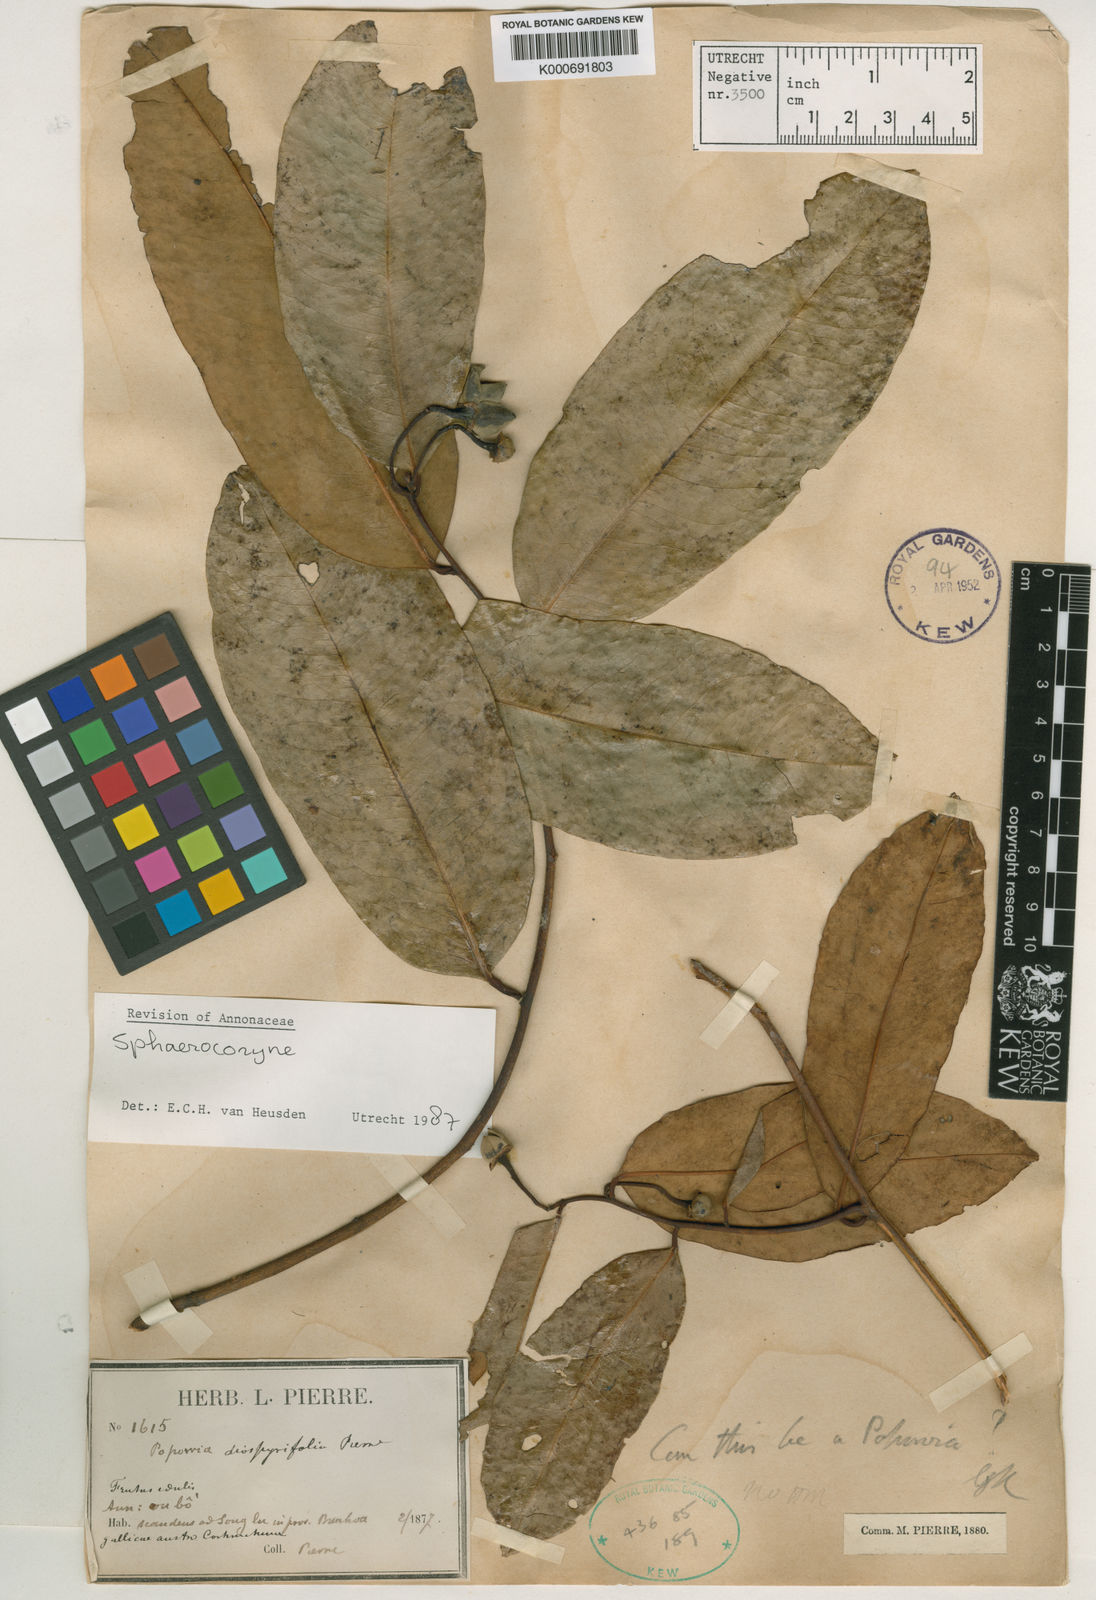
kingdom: Plantae
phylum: Tracheophyta
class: Magnoliopsida
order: Magnoliales
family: Annonaceae
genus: Sphaerocoryne
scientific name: Sphaerocoryne affinis
